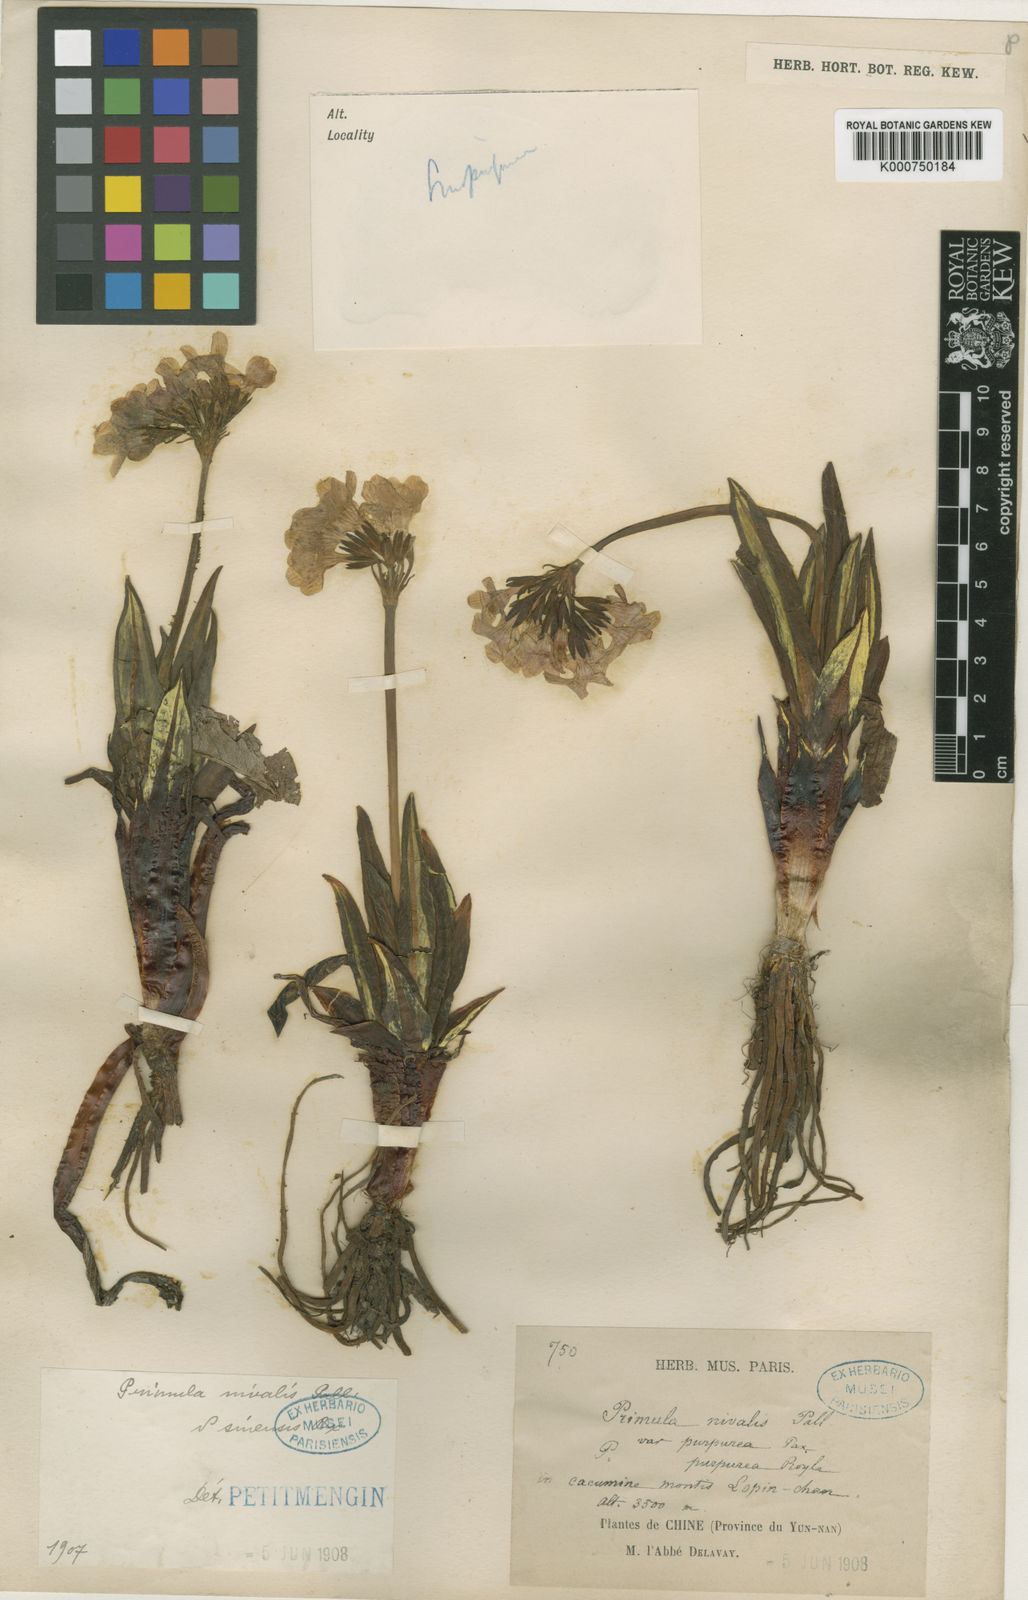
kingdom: Plantae
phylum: Tracheophyta
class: Magnoliopsida
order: Ericales
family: Primulaceae
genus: Primula
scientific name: Primula
